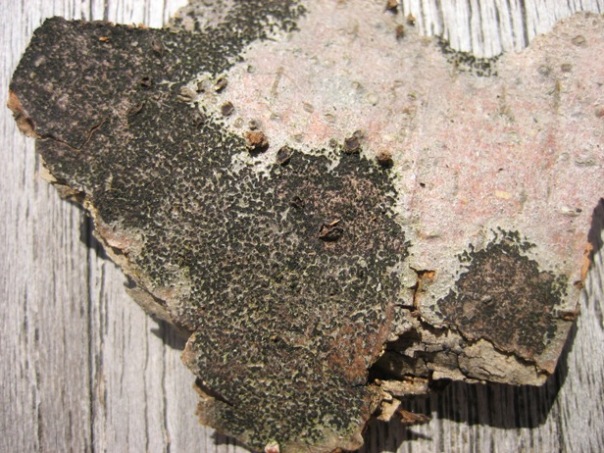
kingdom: Fungi
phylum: Ascomycota
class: Leotiomycetes
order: Rhytismatales
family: Ascodichaenaceae
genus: Ascodichaena
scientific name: Ascodichaena rugosa
